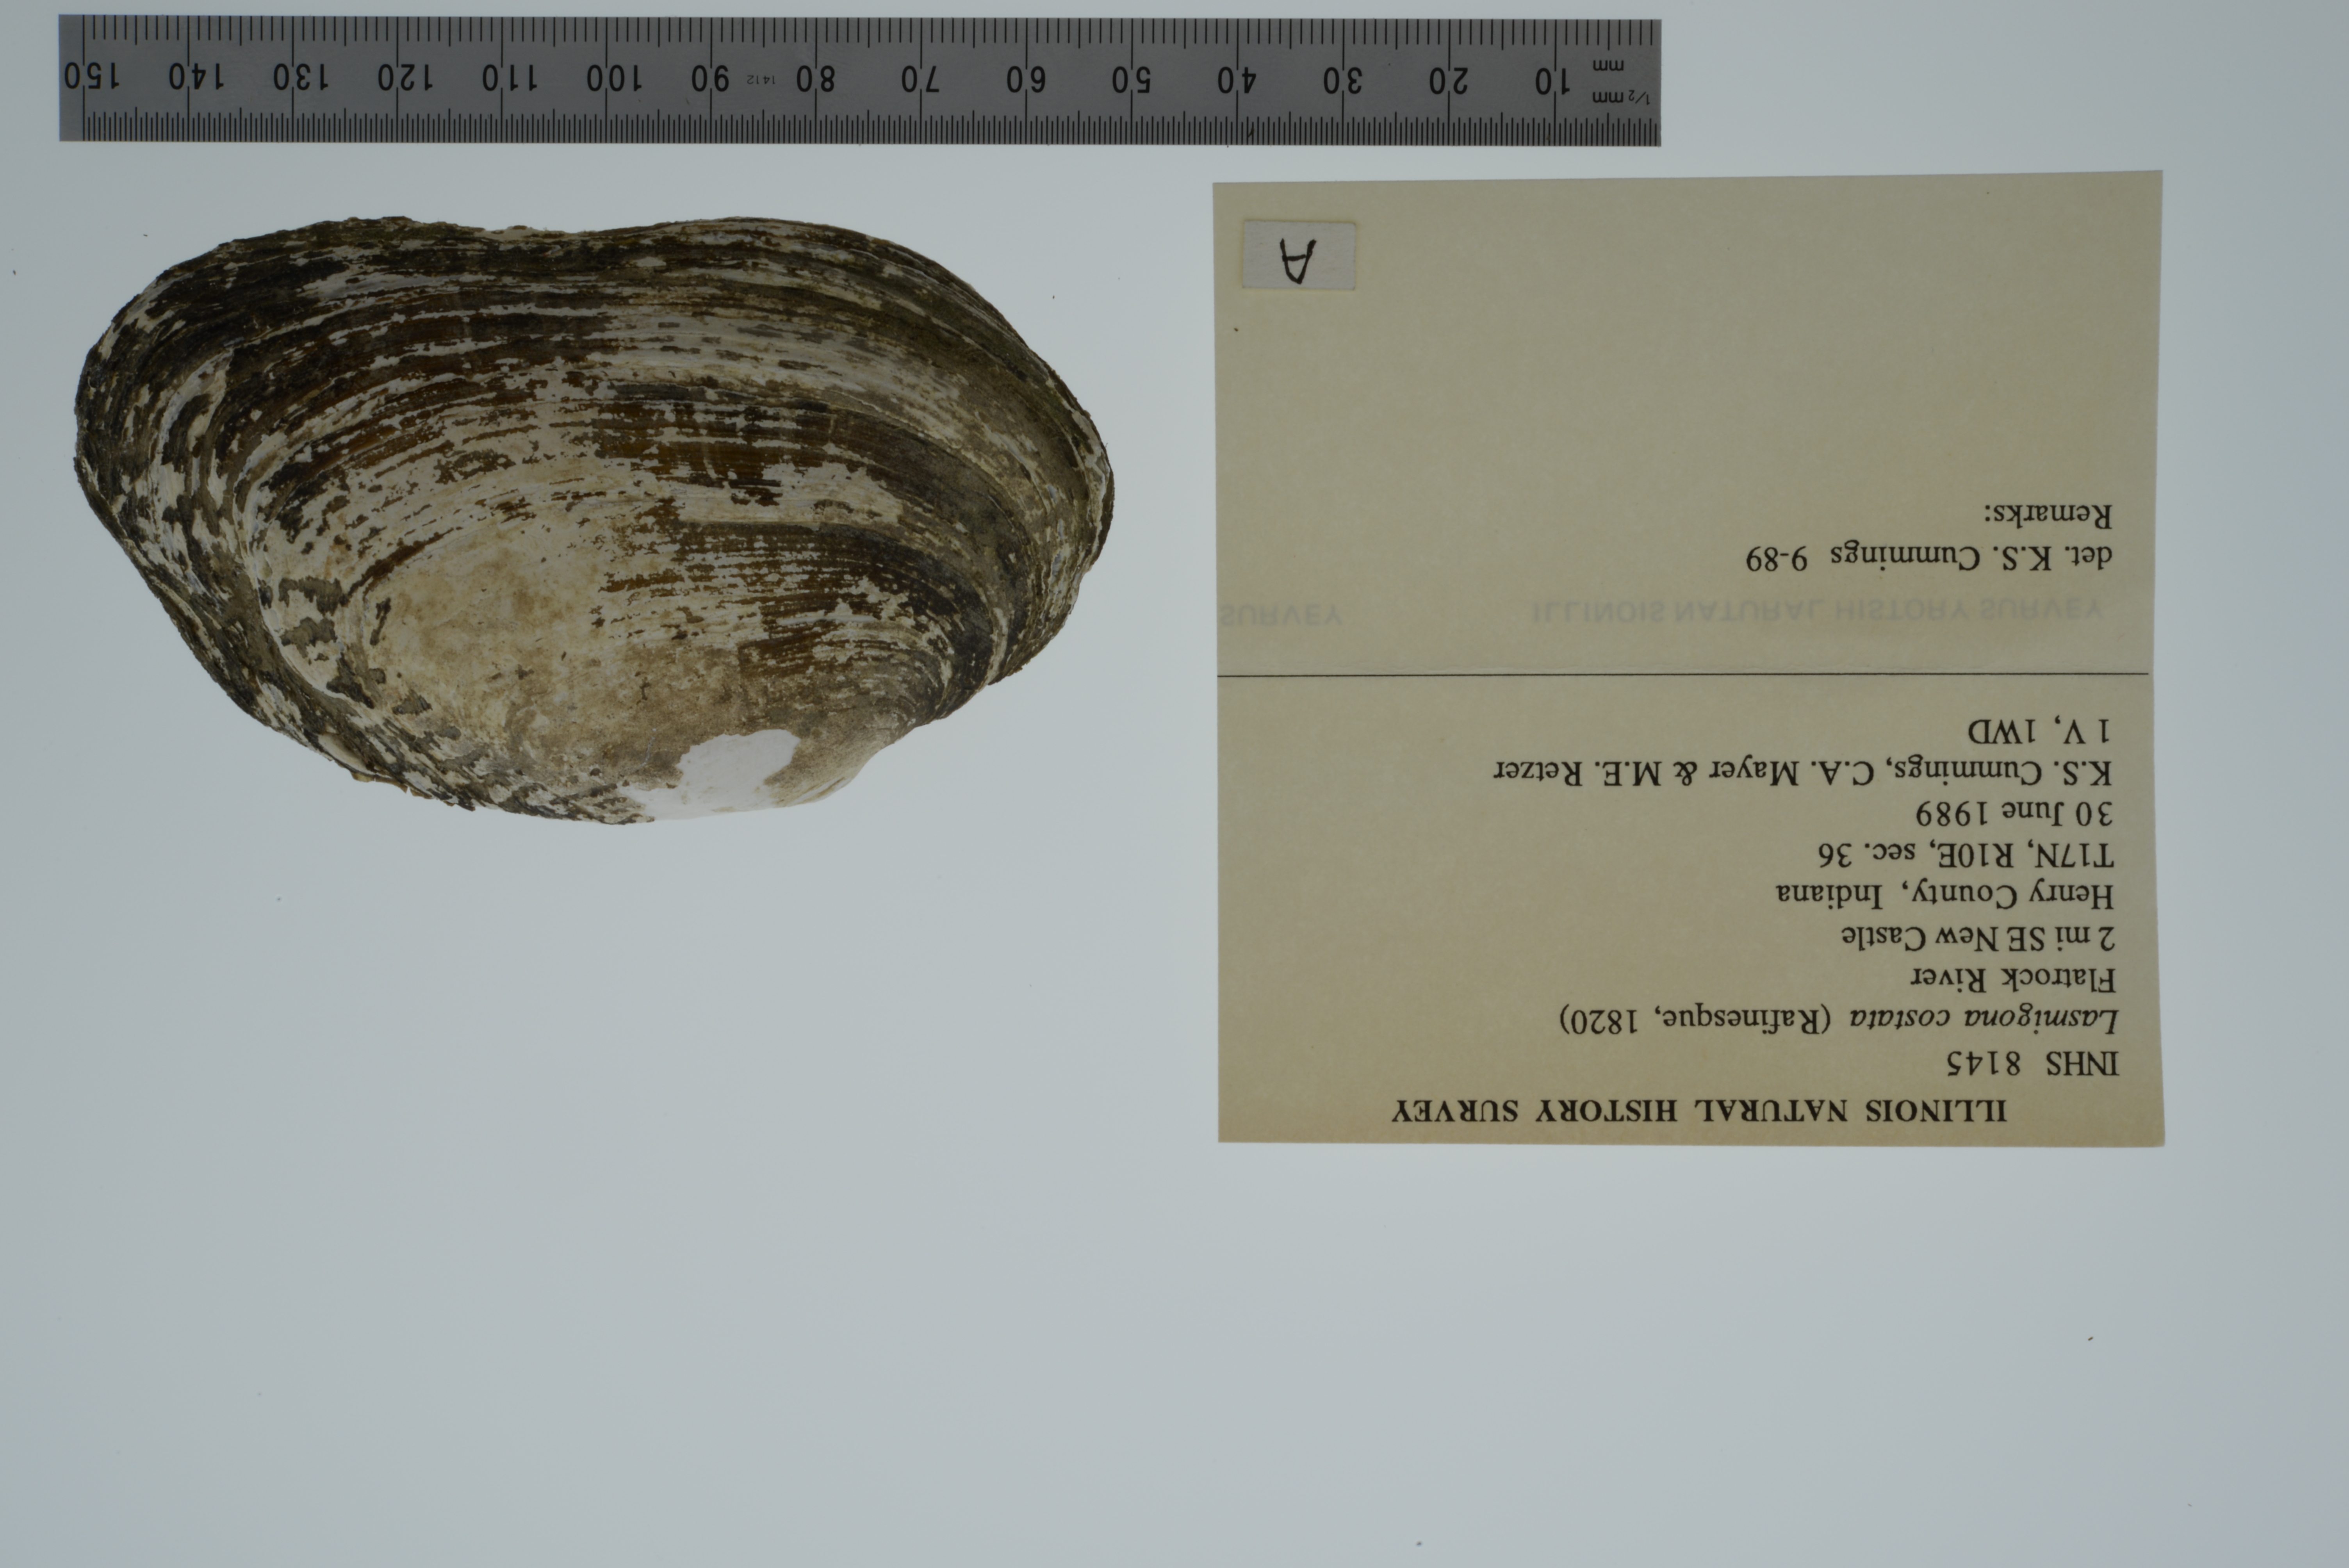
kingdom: Animalia
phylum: Mollusca
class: Bivalvia
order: Unionida
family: Unionidae
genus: Lasmigona
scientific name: Lasmigona costata
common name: Flutedshell
